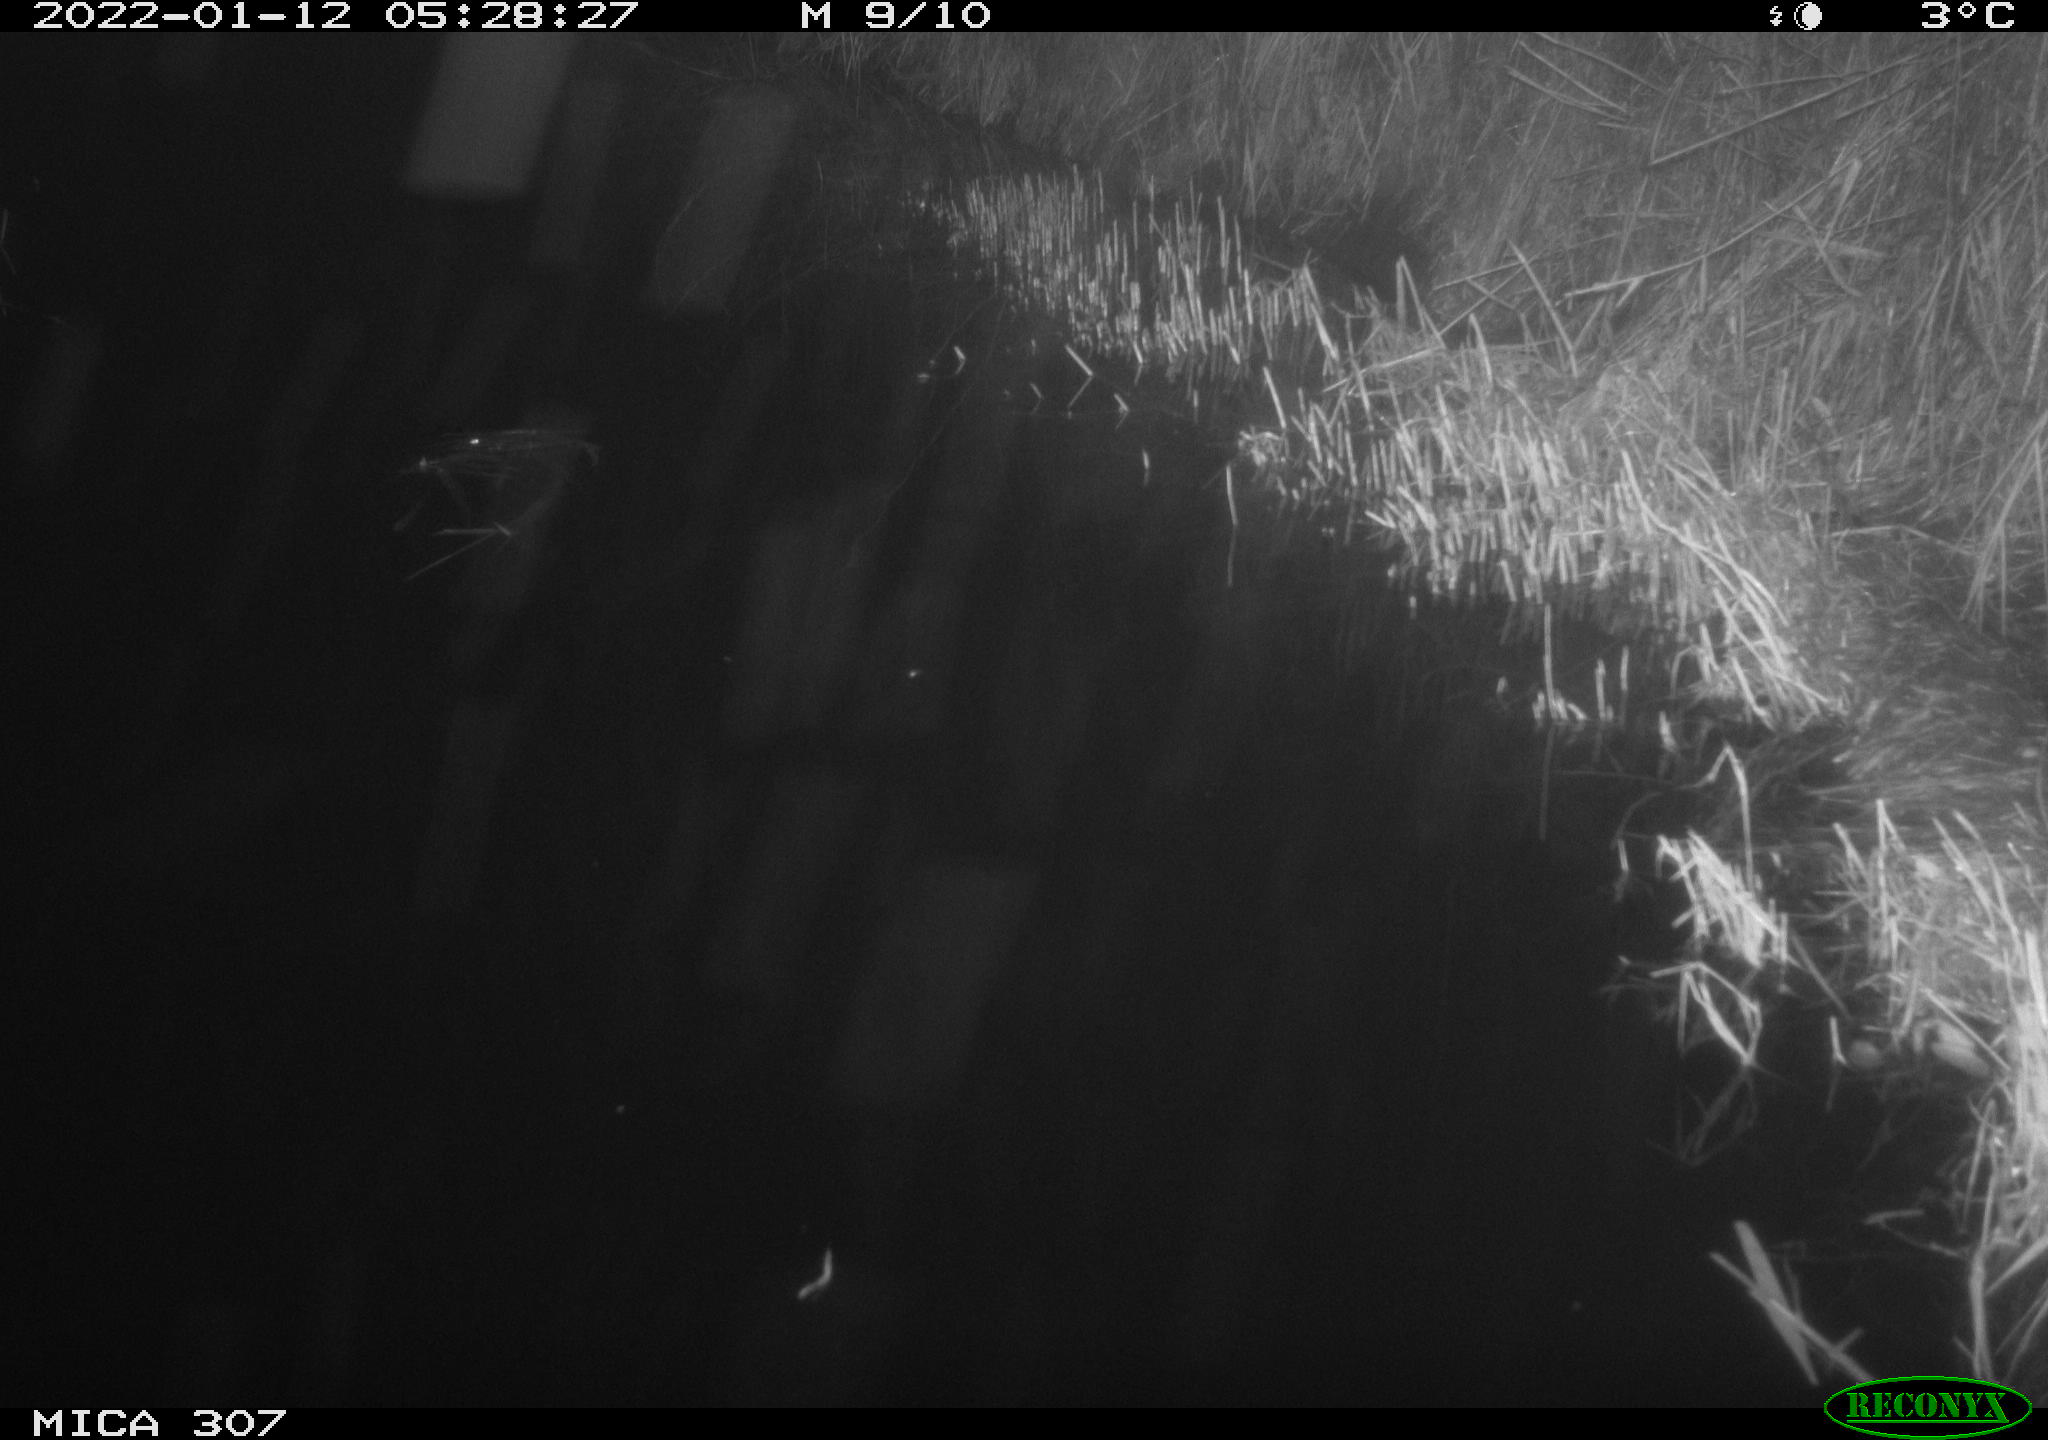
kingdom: Animalia
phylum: Chordata
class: Mammalia
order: Rodentia
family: Muridae
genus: Rattus
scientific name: Rattus norvegicus
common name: Brown rat
